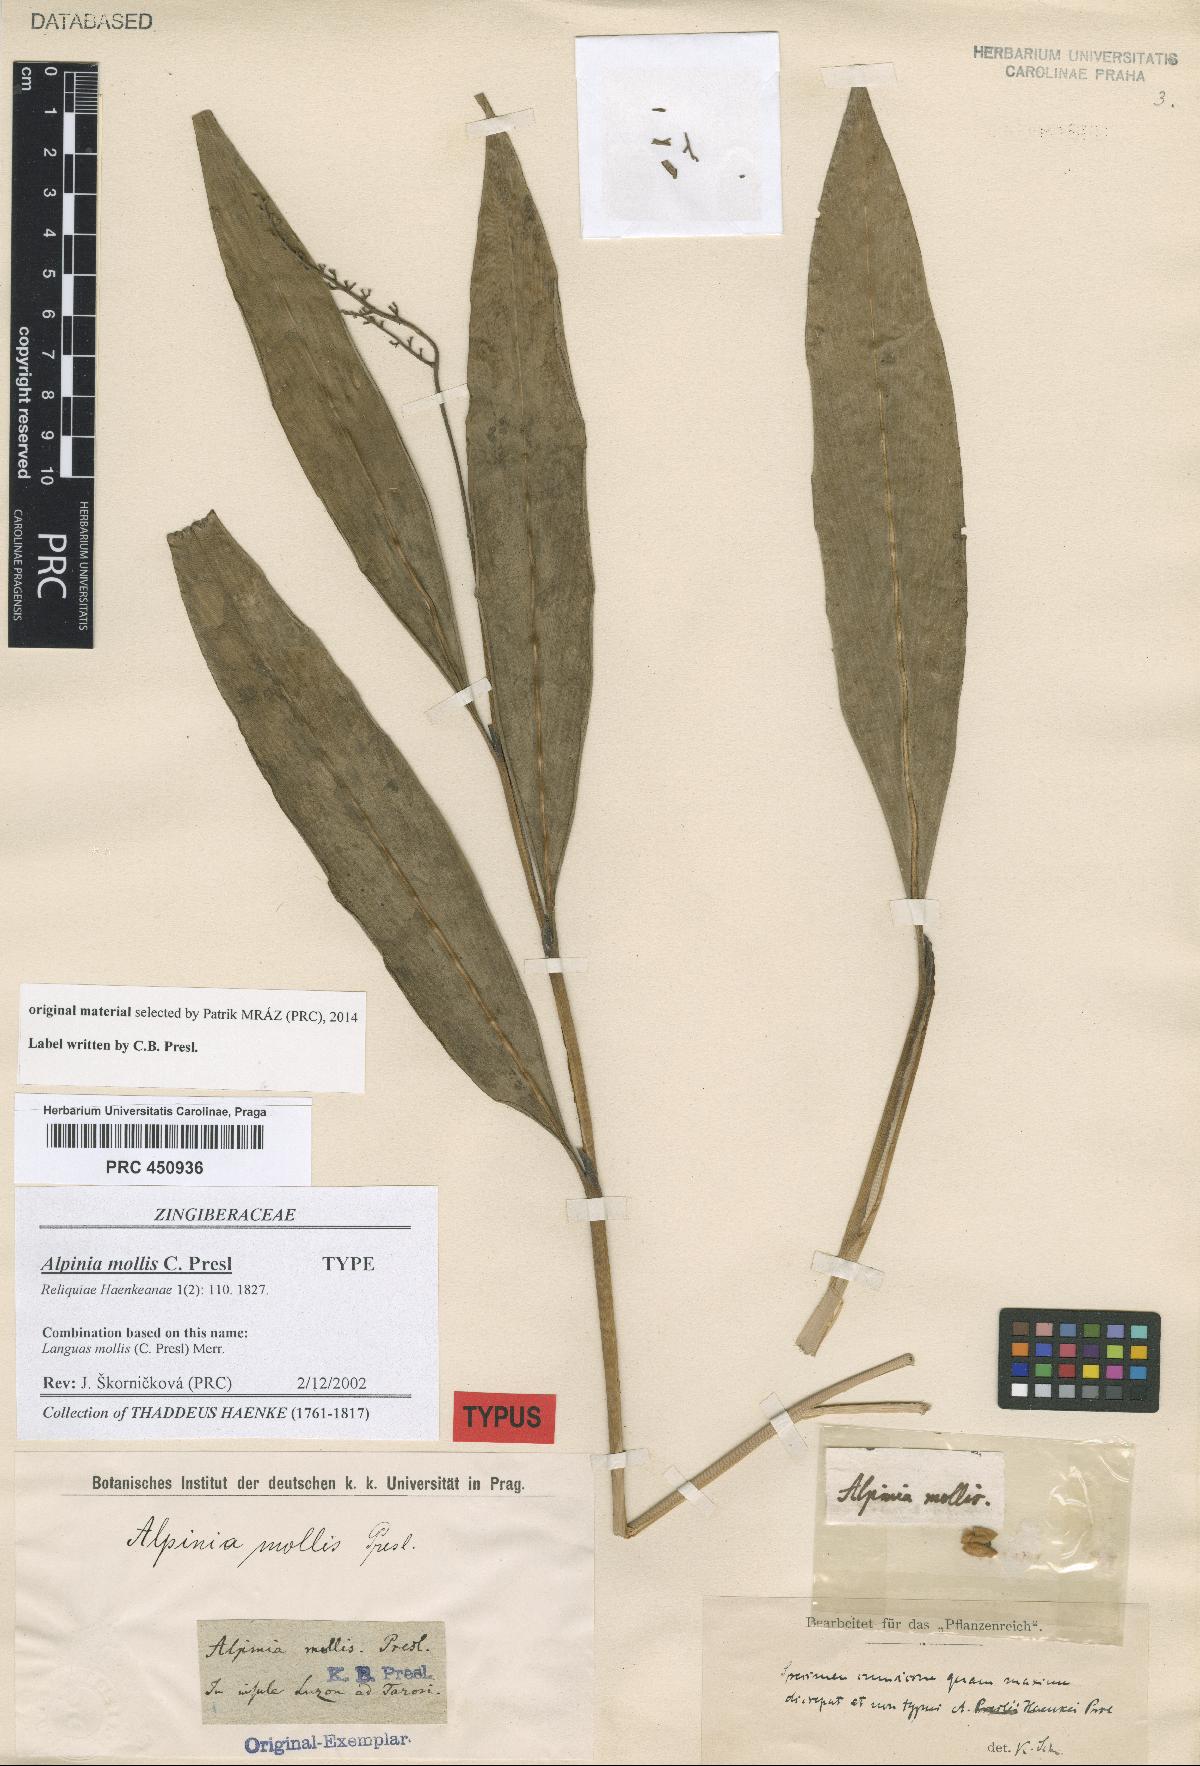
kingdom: Plantae
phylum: Tracheophyta
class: Liliopsida
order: Zingiberales
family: Zingiberaceae
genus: Alpinia
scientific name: Alpinia mollis
